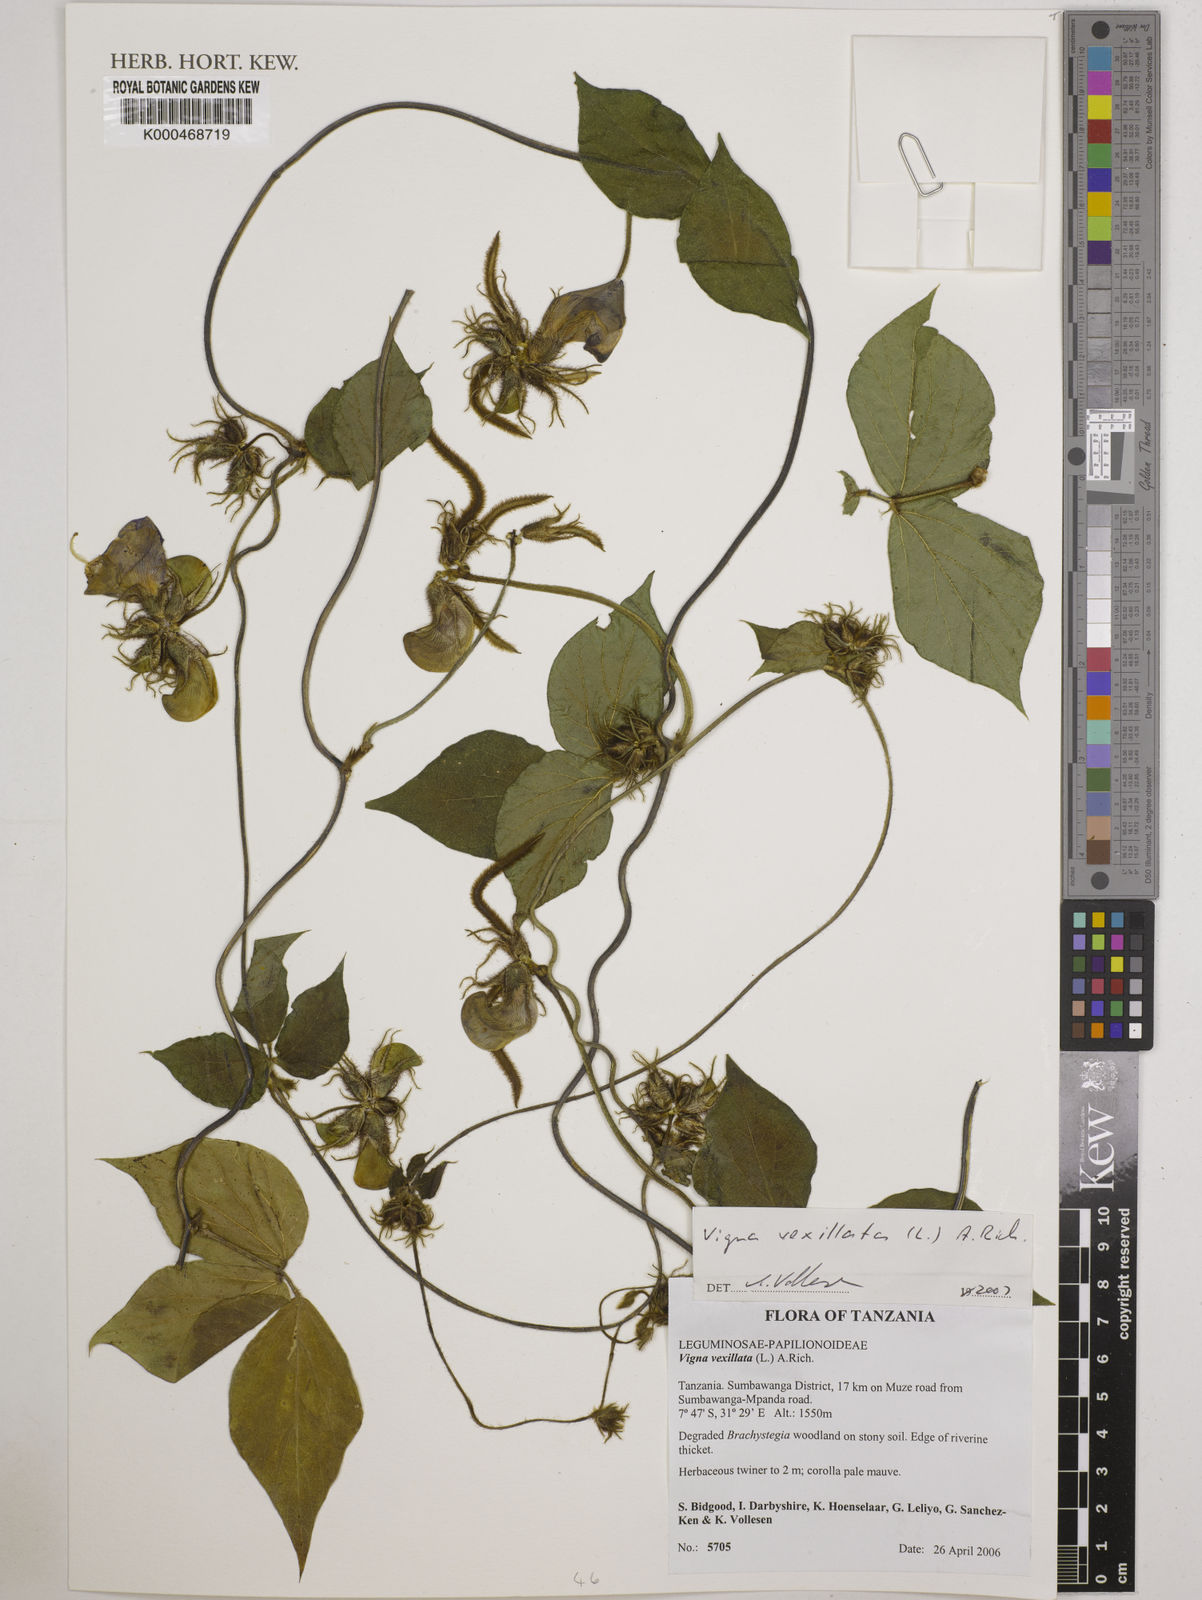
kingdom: Plantae
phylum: Tracheophyta
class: Magnoliopsida
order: Fabales
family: Fabaceae
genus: Vigna
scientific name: Vigna vexillata
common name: Zombi pea
